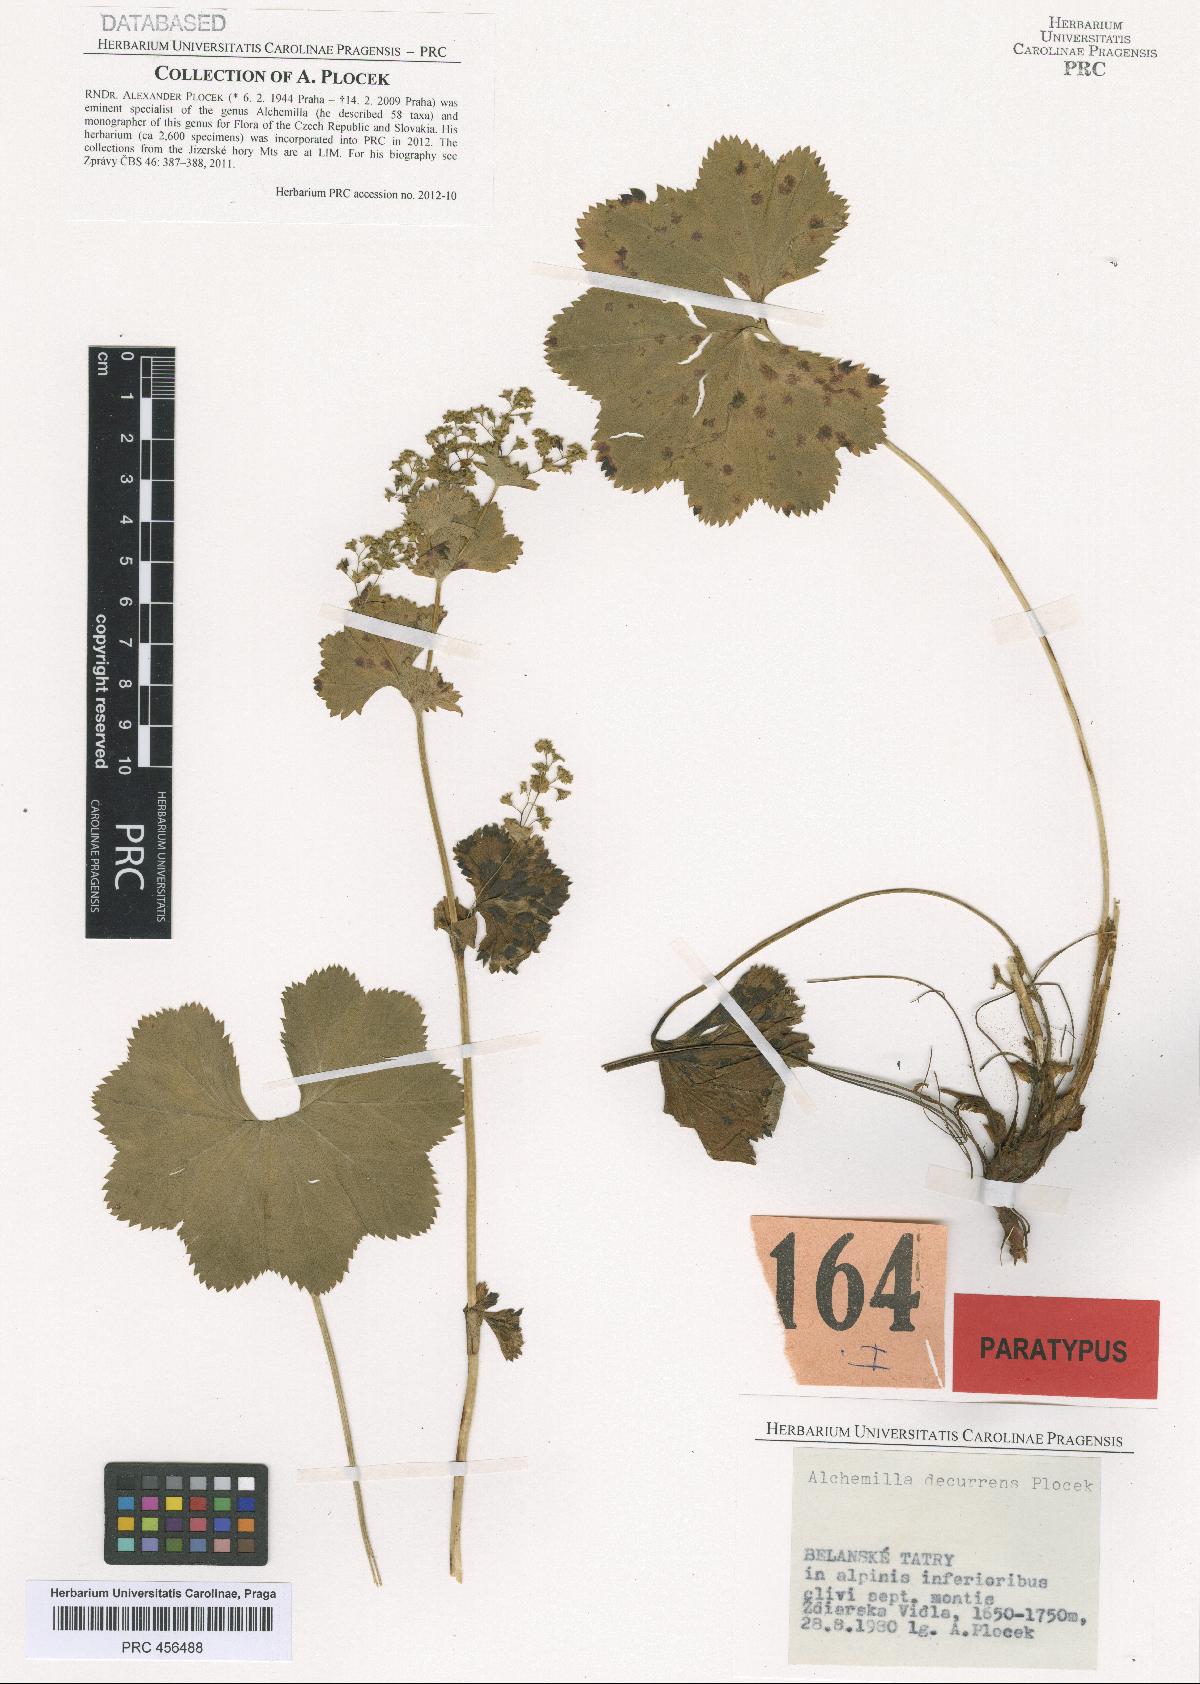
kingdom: Plantae
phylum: Tracheophyta
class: Magnoliopsida
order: Rosales
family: Rosaceae
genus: Alchemilla
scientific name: Alchemilla decurrens
